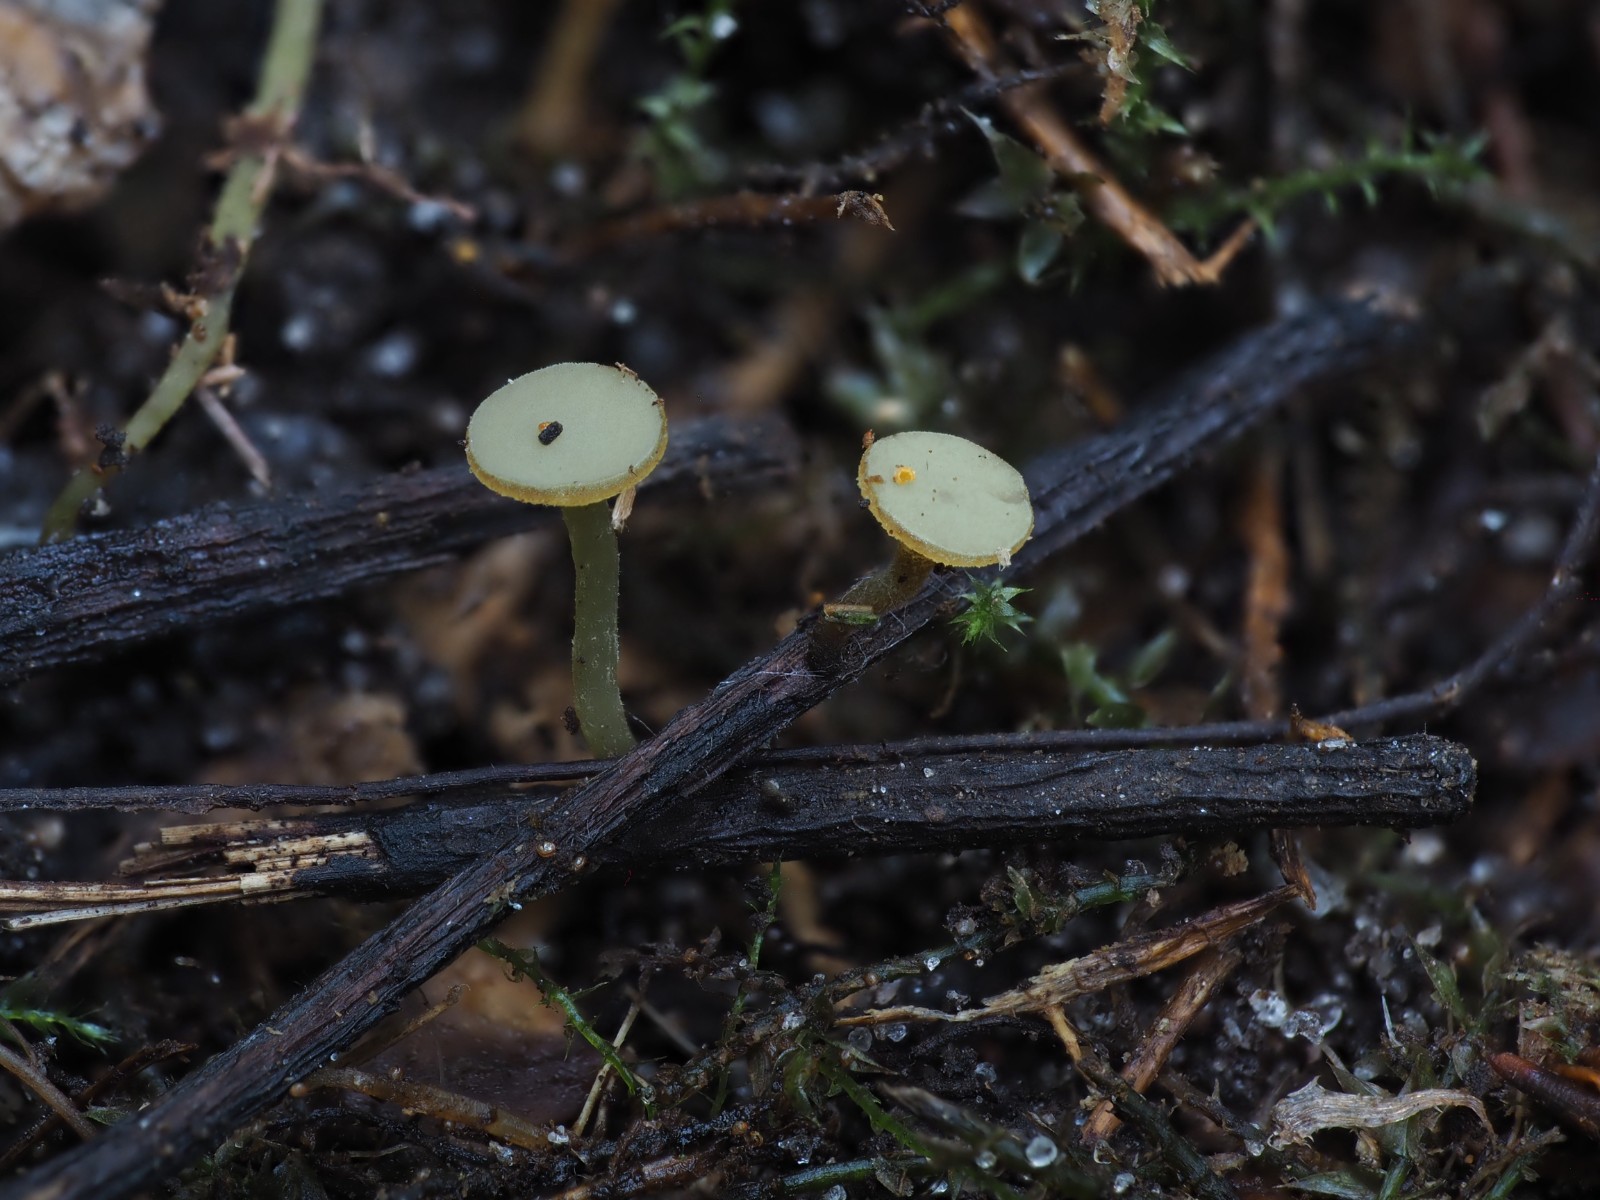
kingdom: Fungi
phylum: Ascomycota
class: Leotiomycetes
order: Helotiales
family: Rutstroemiaceae
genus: Lanzia
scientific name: Lanzia luteovirescens
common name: olivengul brunskive
